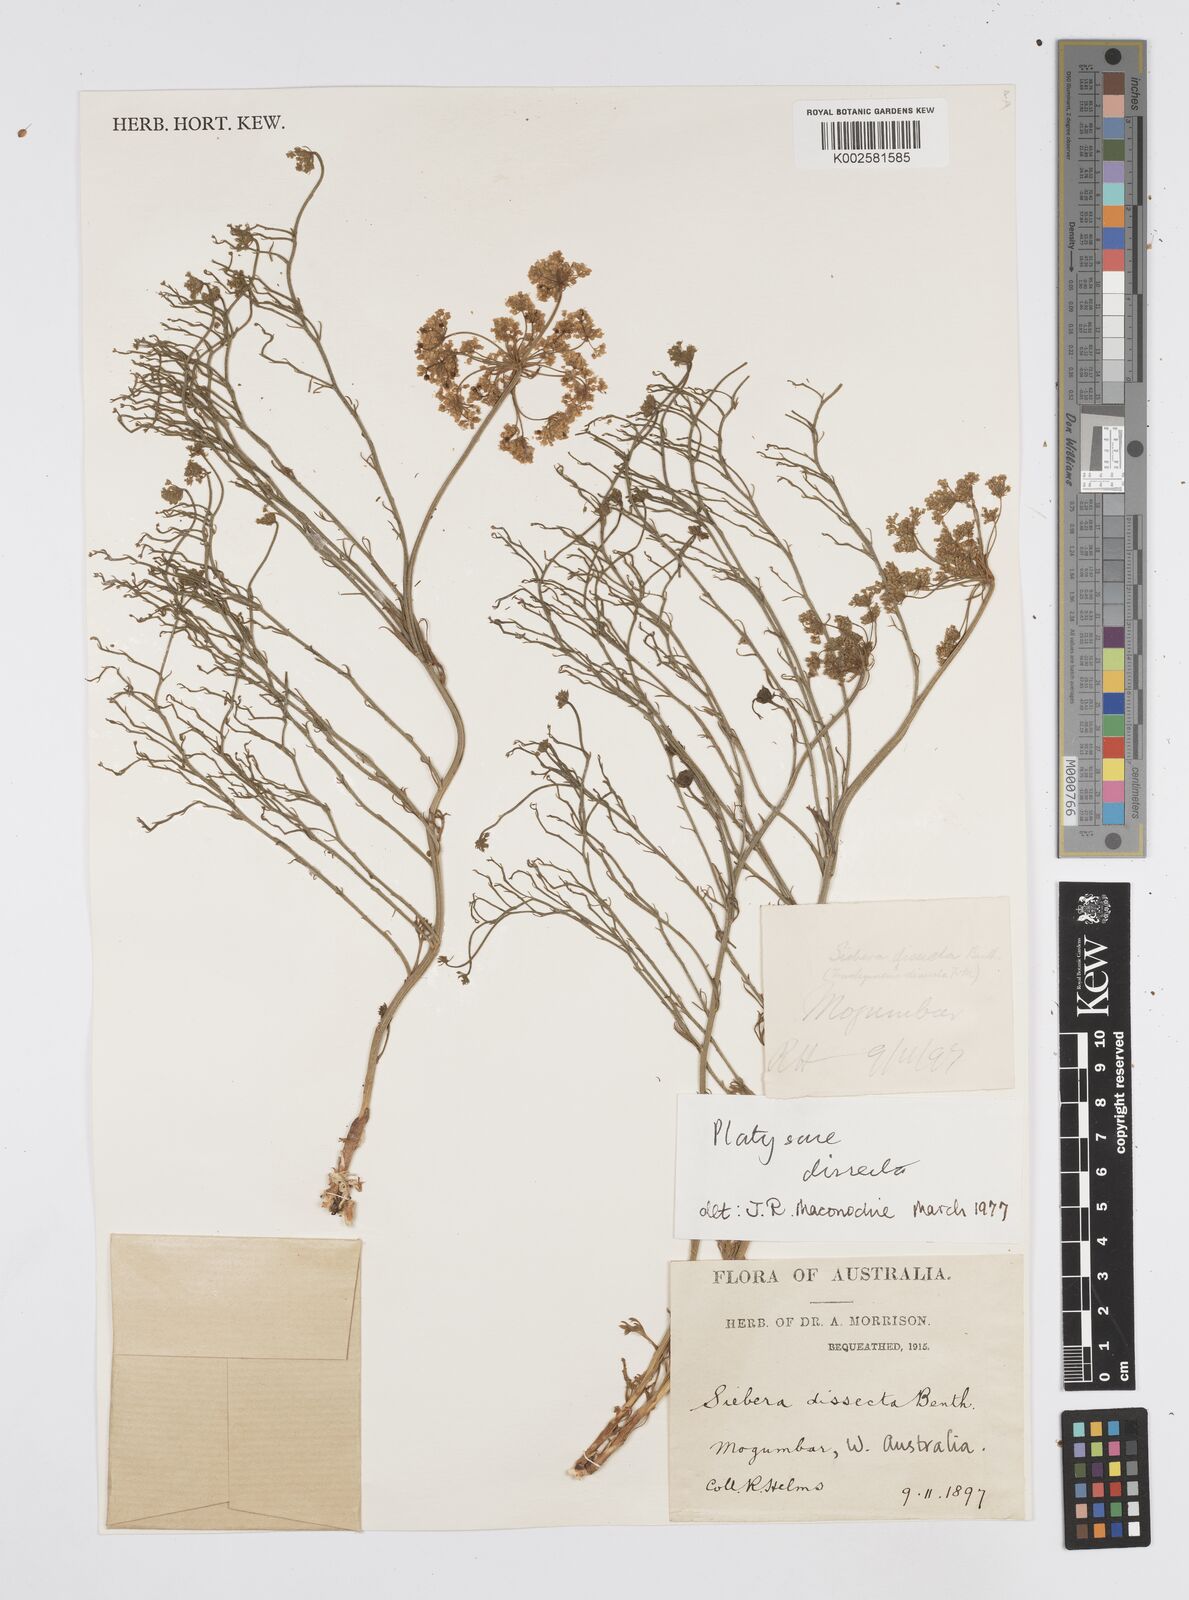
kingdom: Plantae
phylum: Tracheophyta
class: Magnoliopsida
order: Apiales
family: Apiaceae
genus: Platysace
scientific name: Platysace juncea
